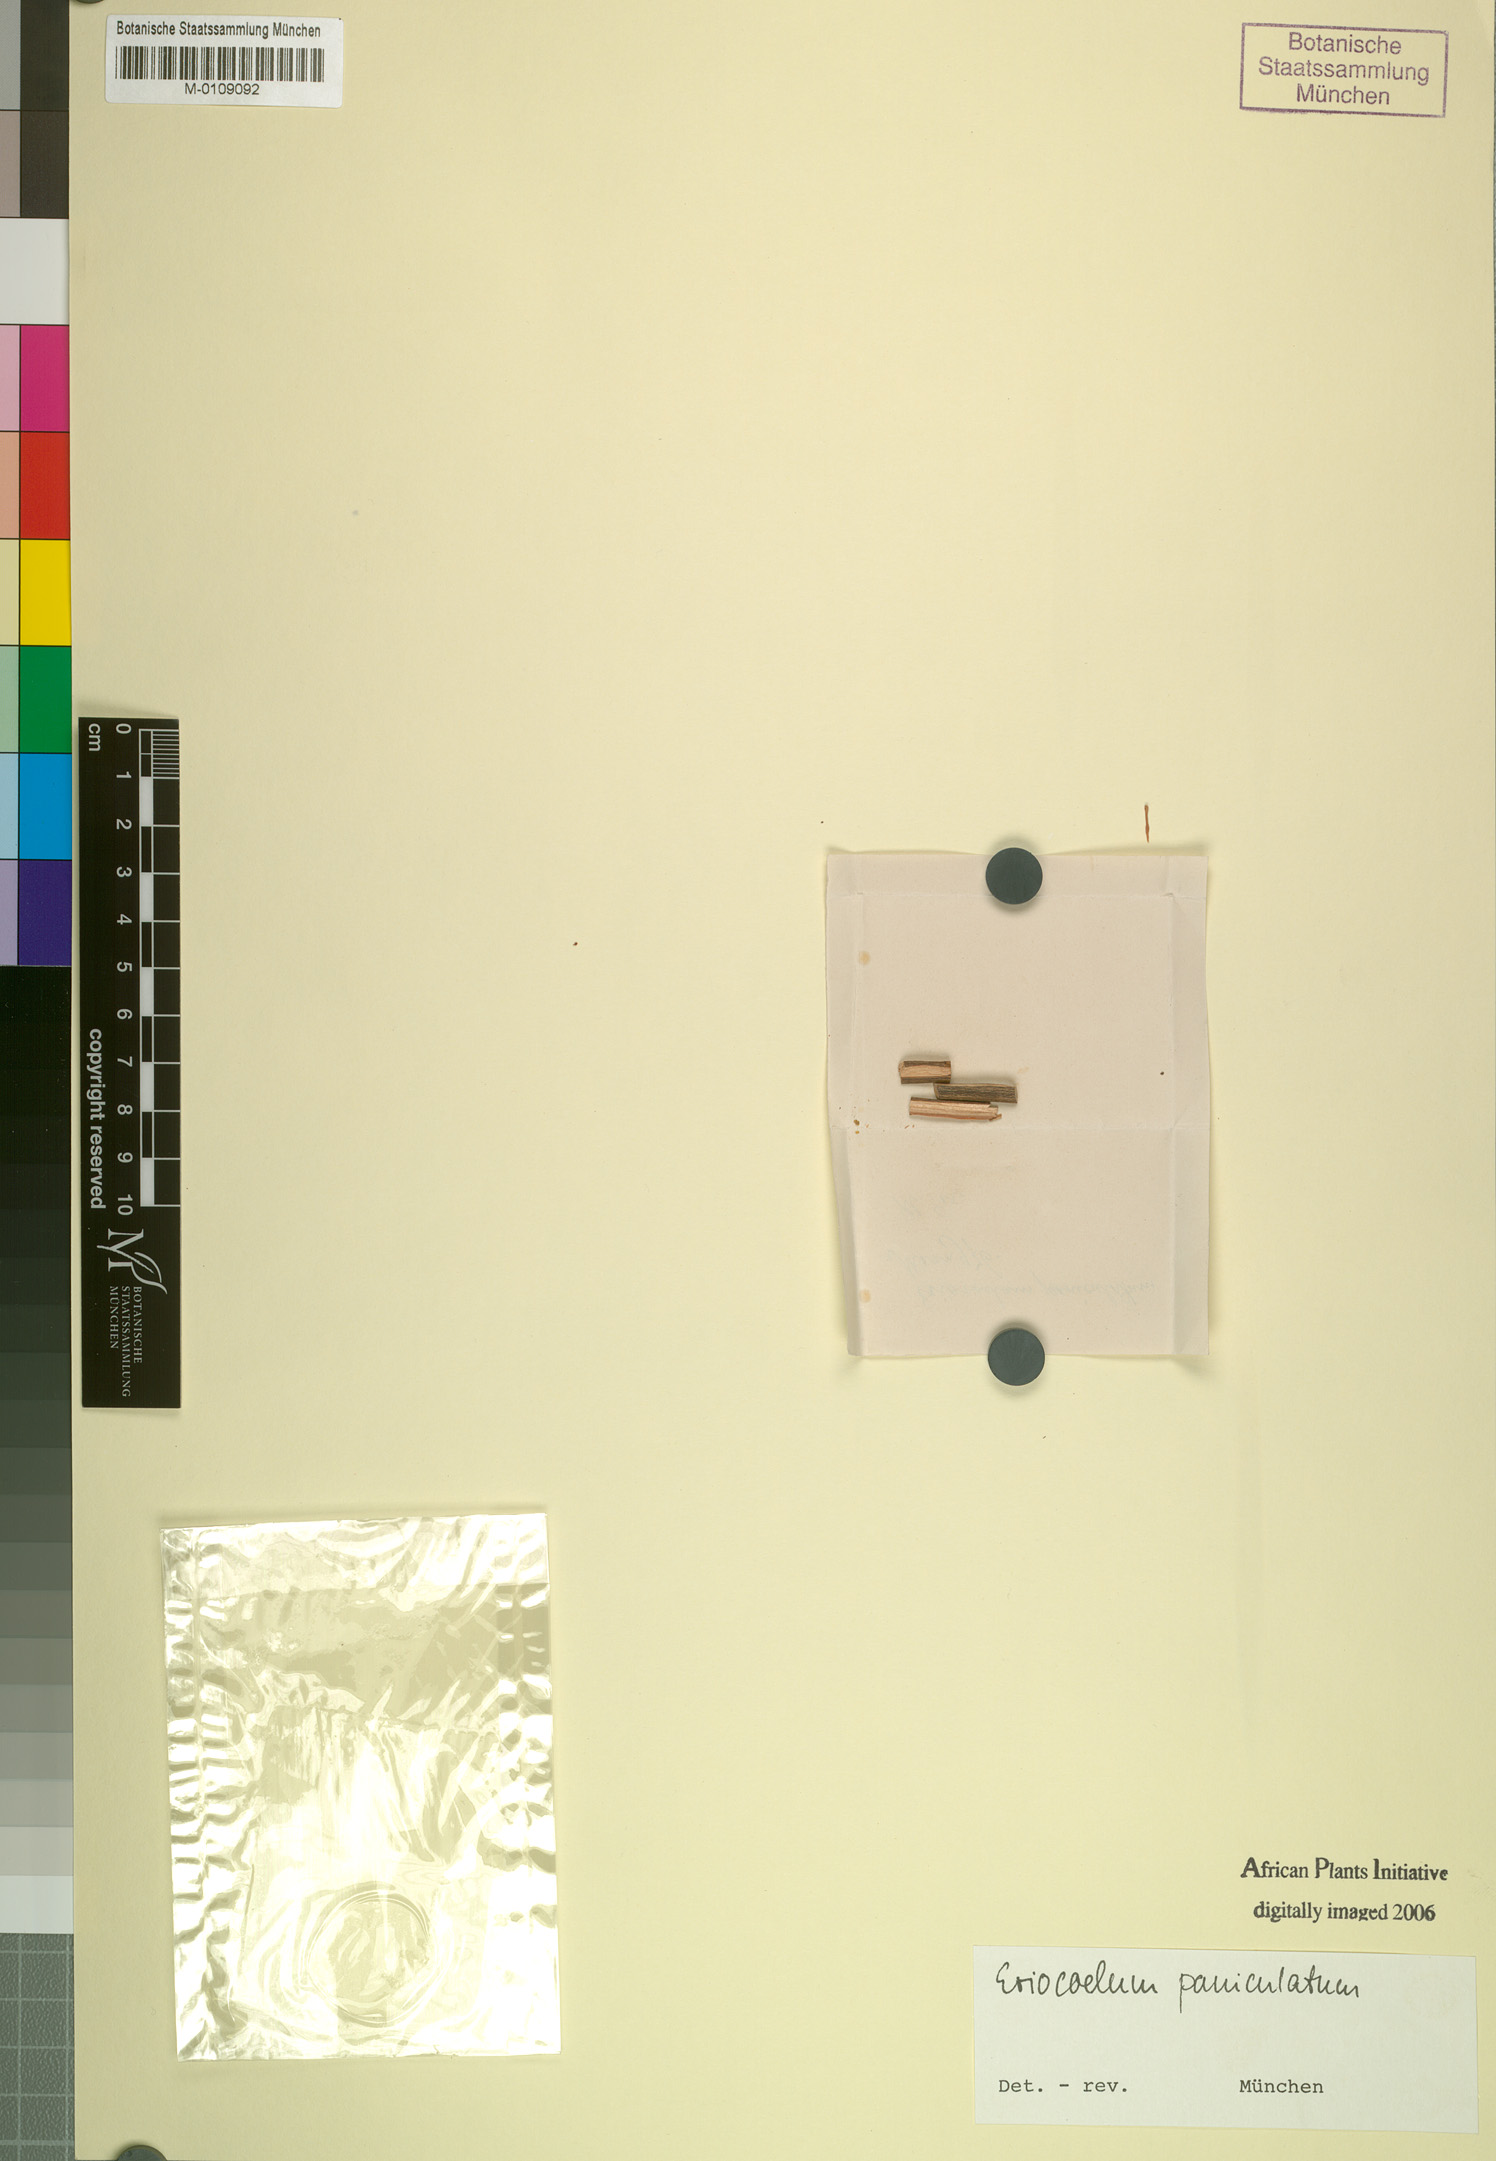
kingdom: Plantae
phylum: Tracheophyta
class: Magnoliopsida
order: Sapindales
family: Sapindaceae
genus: Eriocoelum
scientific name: Eriocoelum paniculatum
